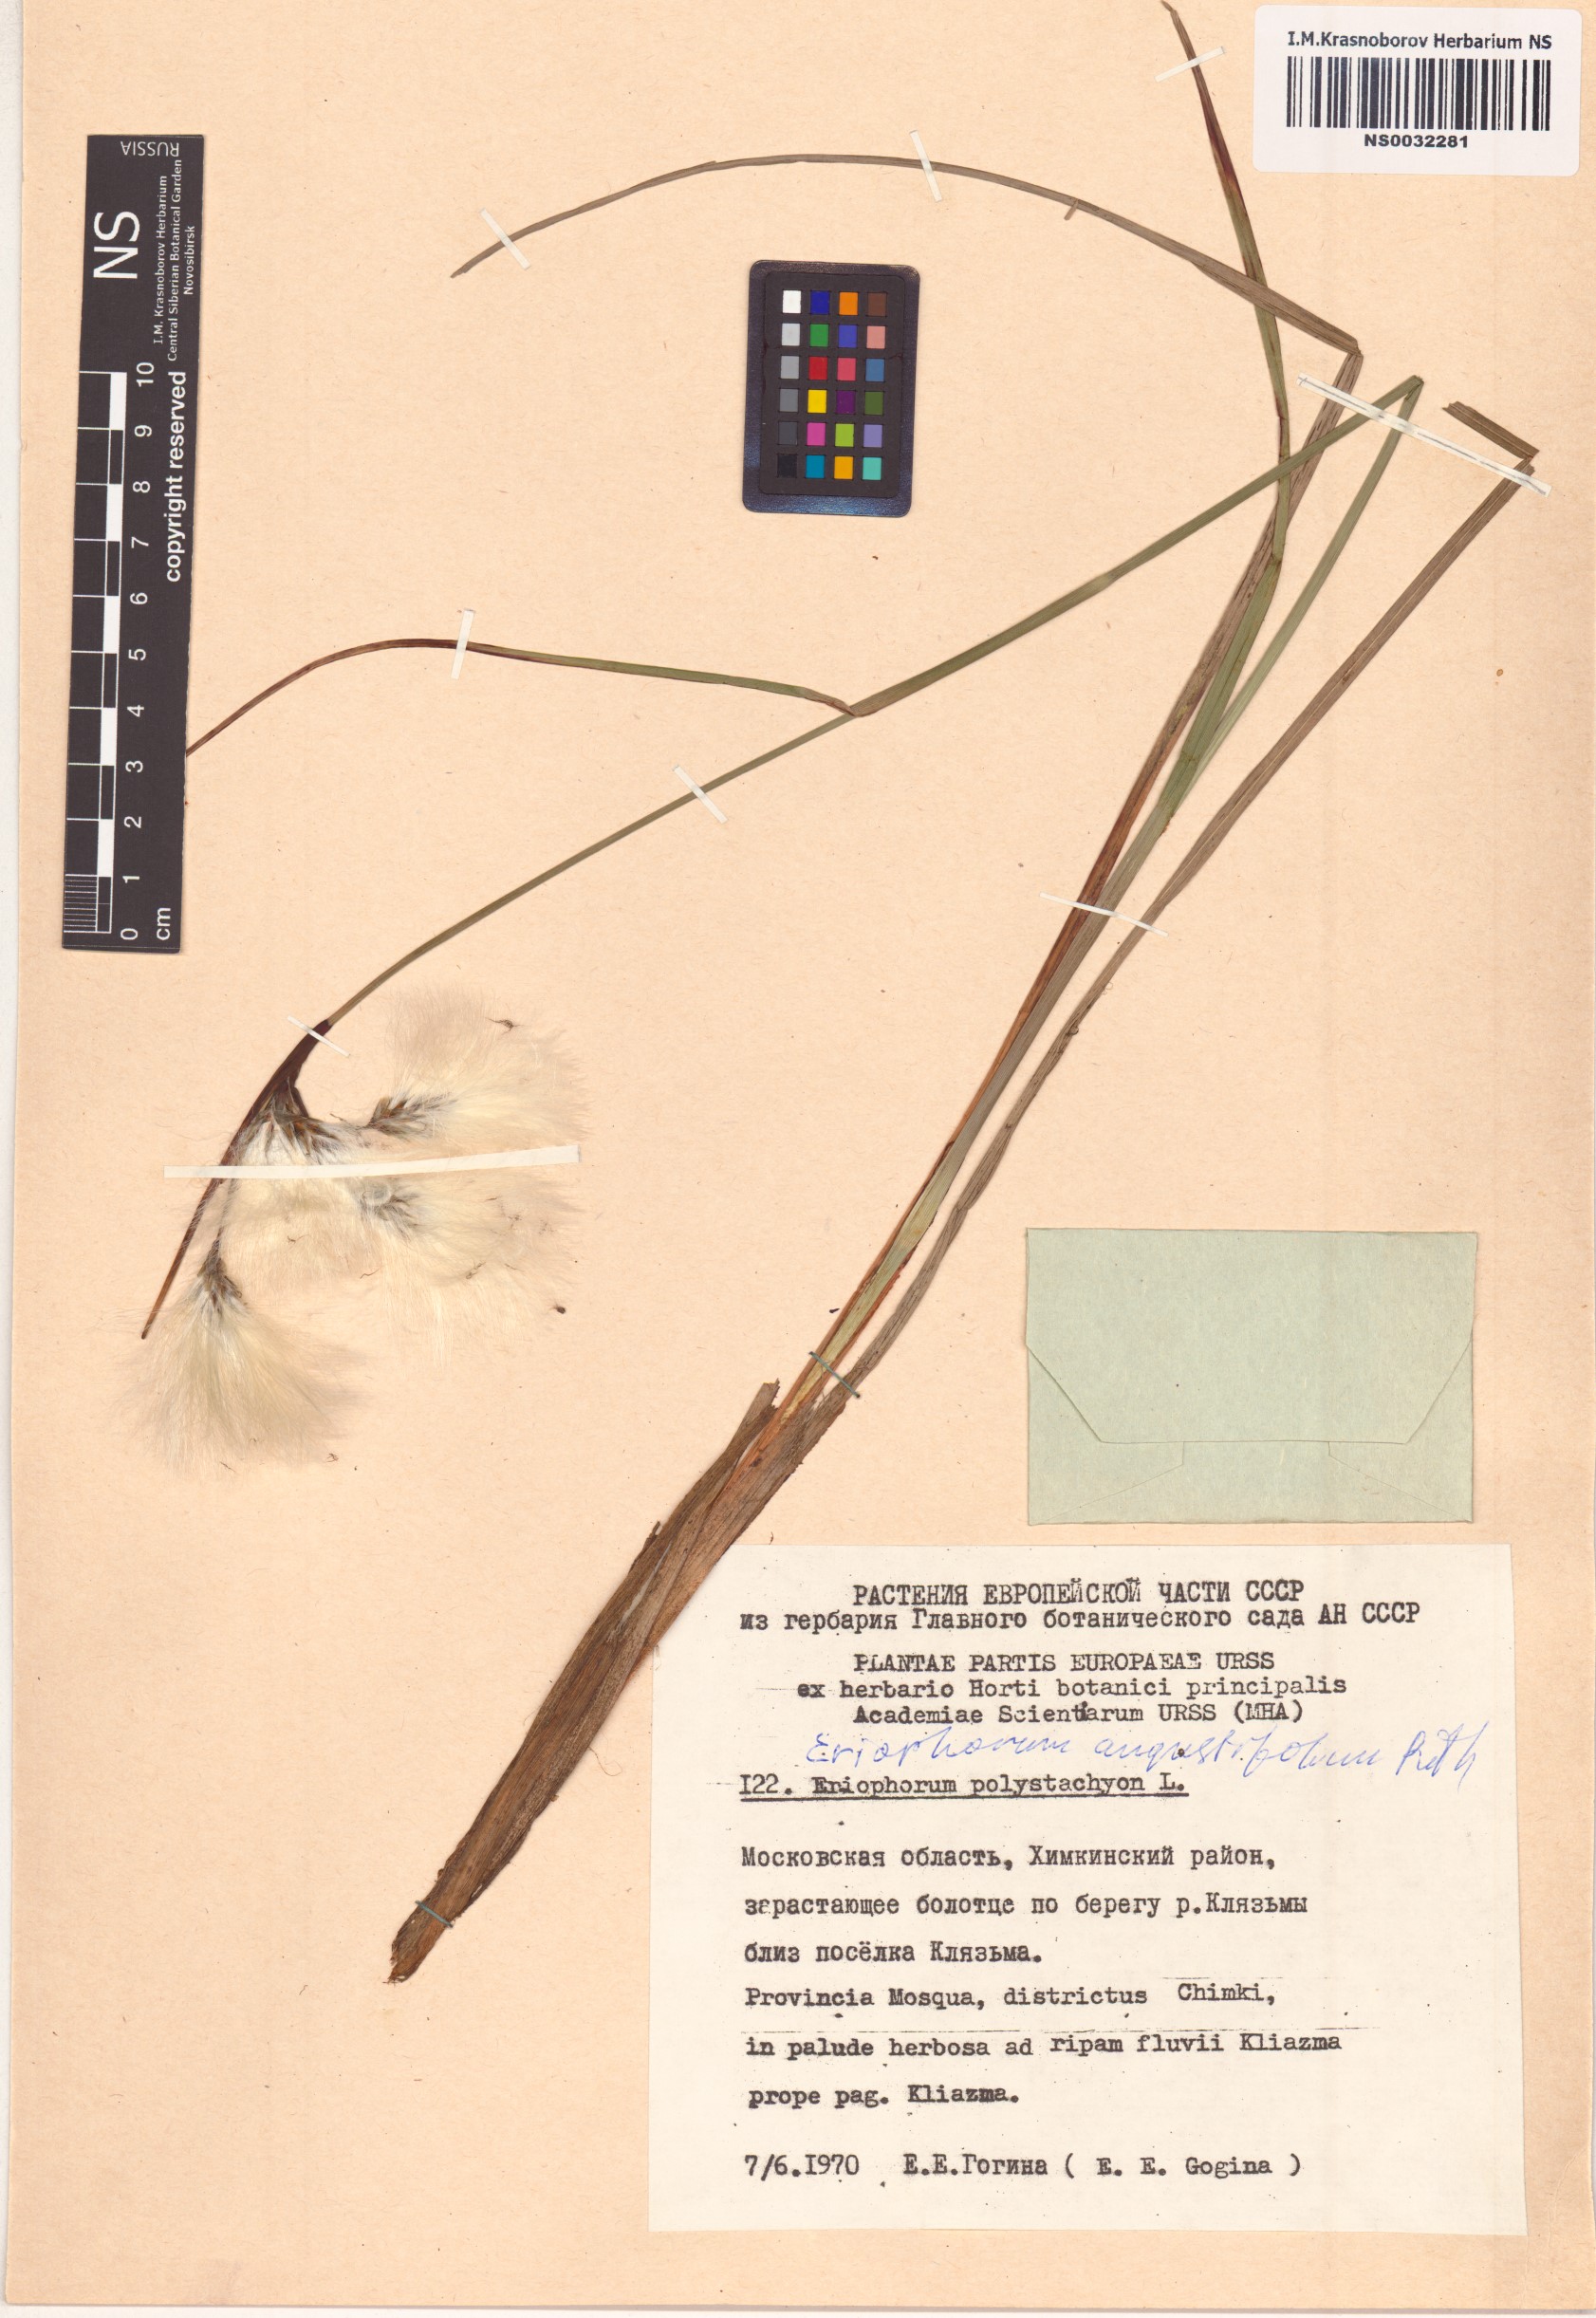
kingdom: Plantae
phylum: Tracheophyta
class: Liliopsida
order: Poales
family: Cyperaceae
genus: Eriophorum
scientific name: Eriophorum angustifolium
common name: Common cottongrass
